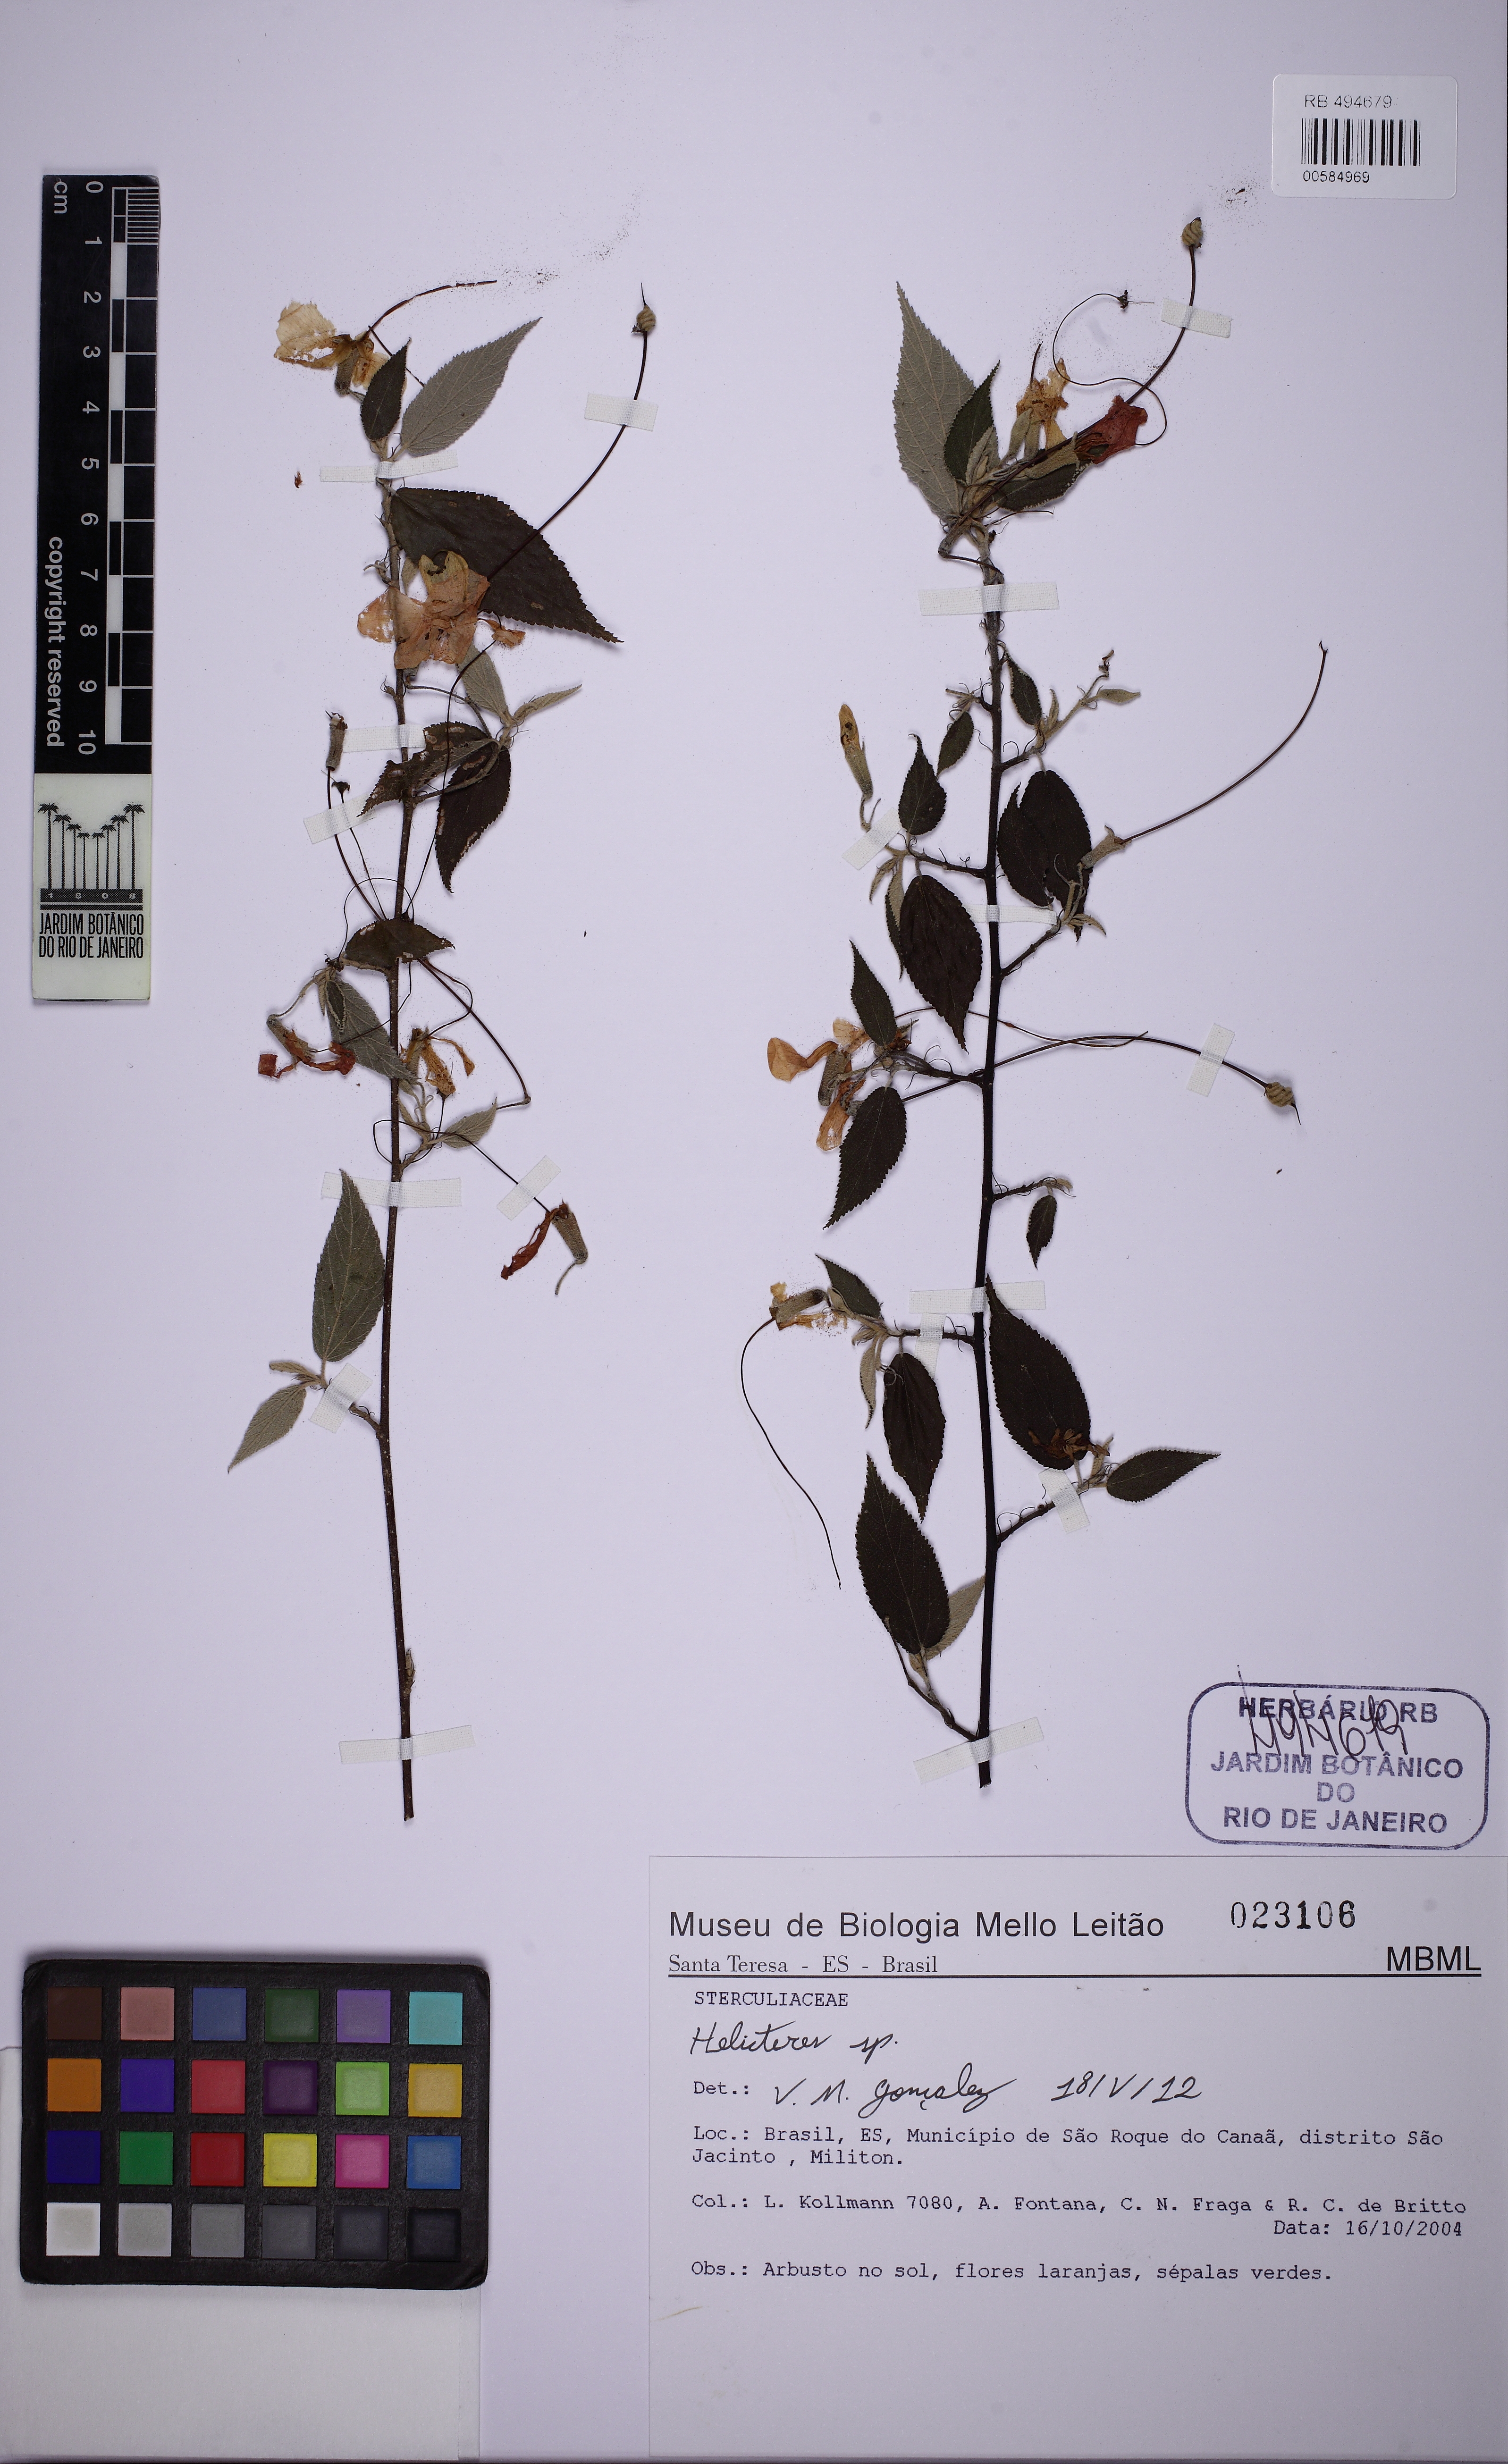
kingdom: Plantae
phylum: Tracheophyta
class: Magnoliopsida
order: Malvales
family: Malvaceae
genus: Helicteres
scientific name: Helicteres
